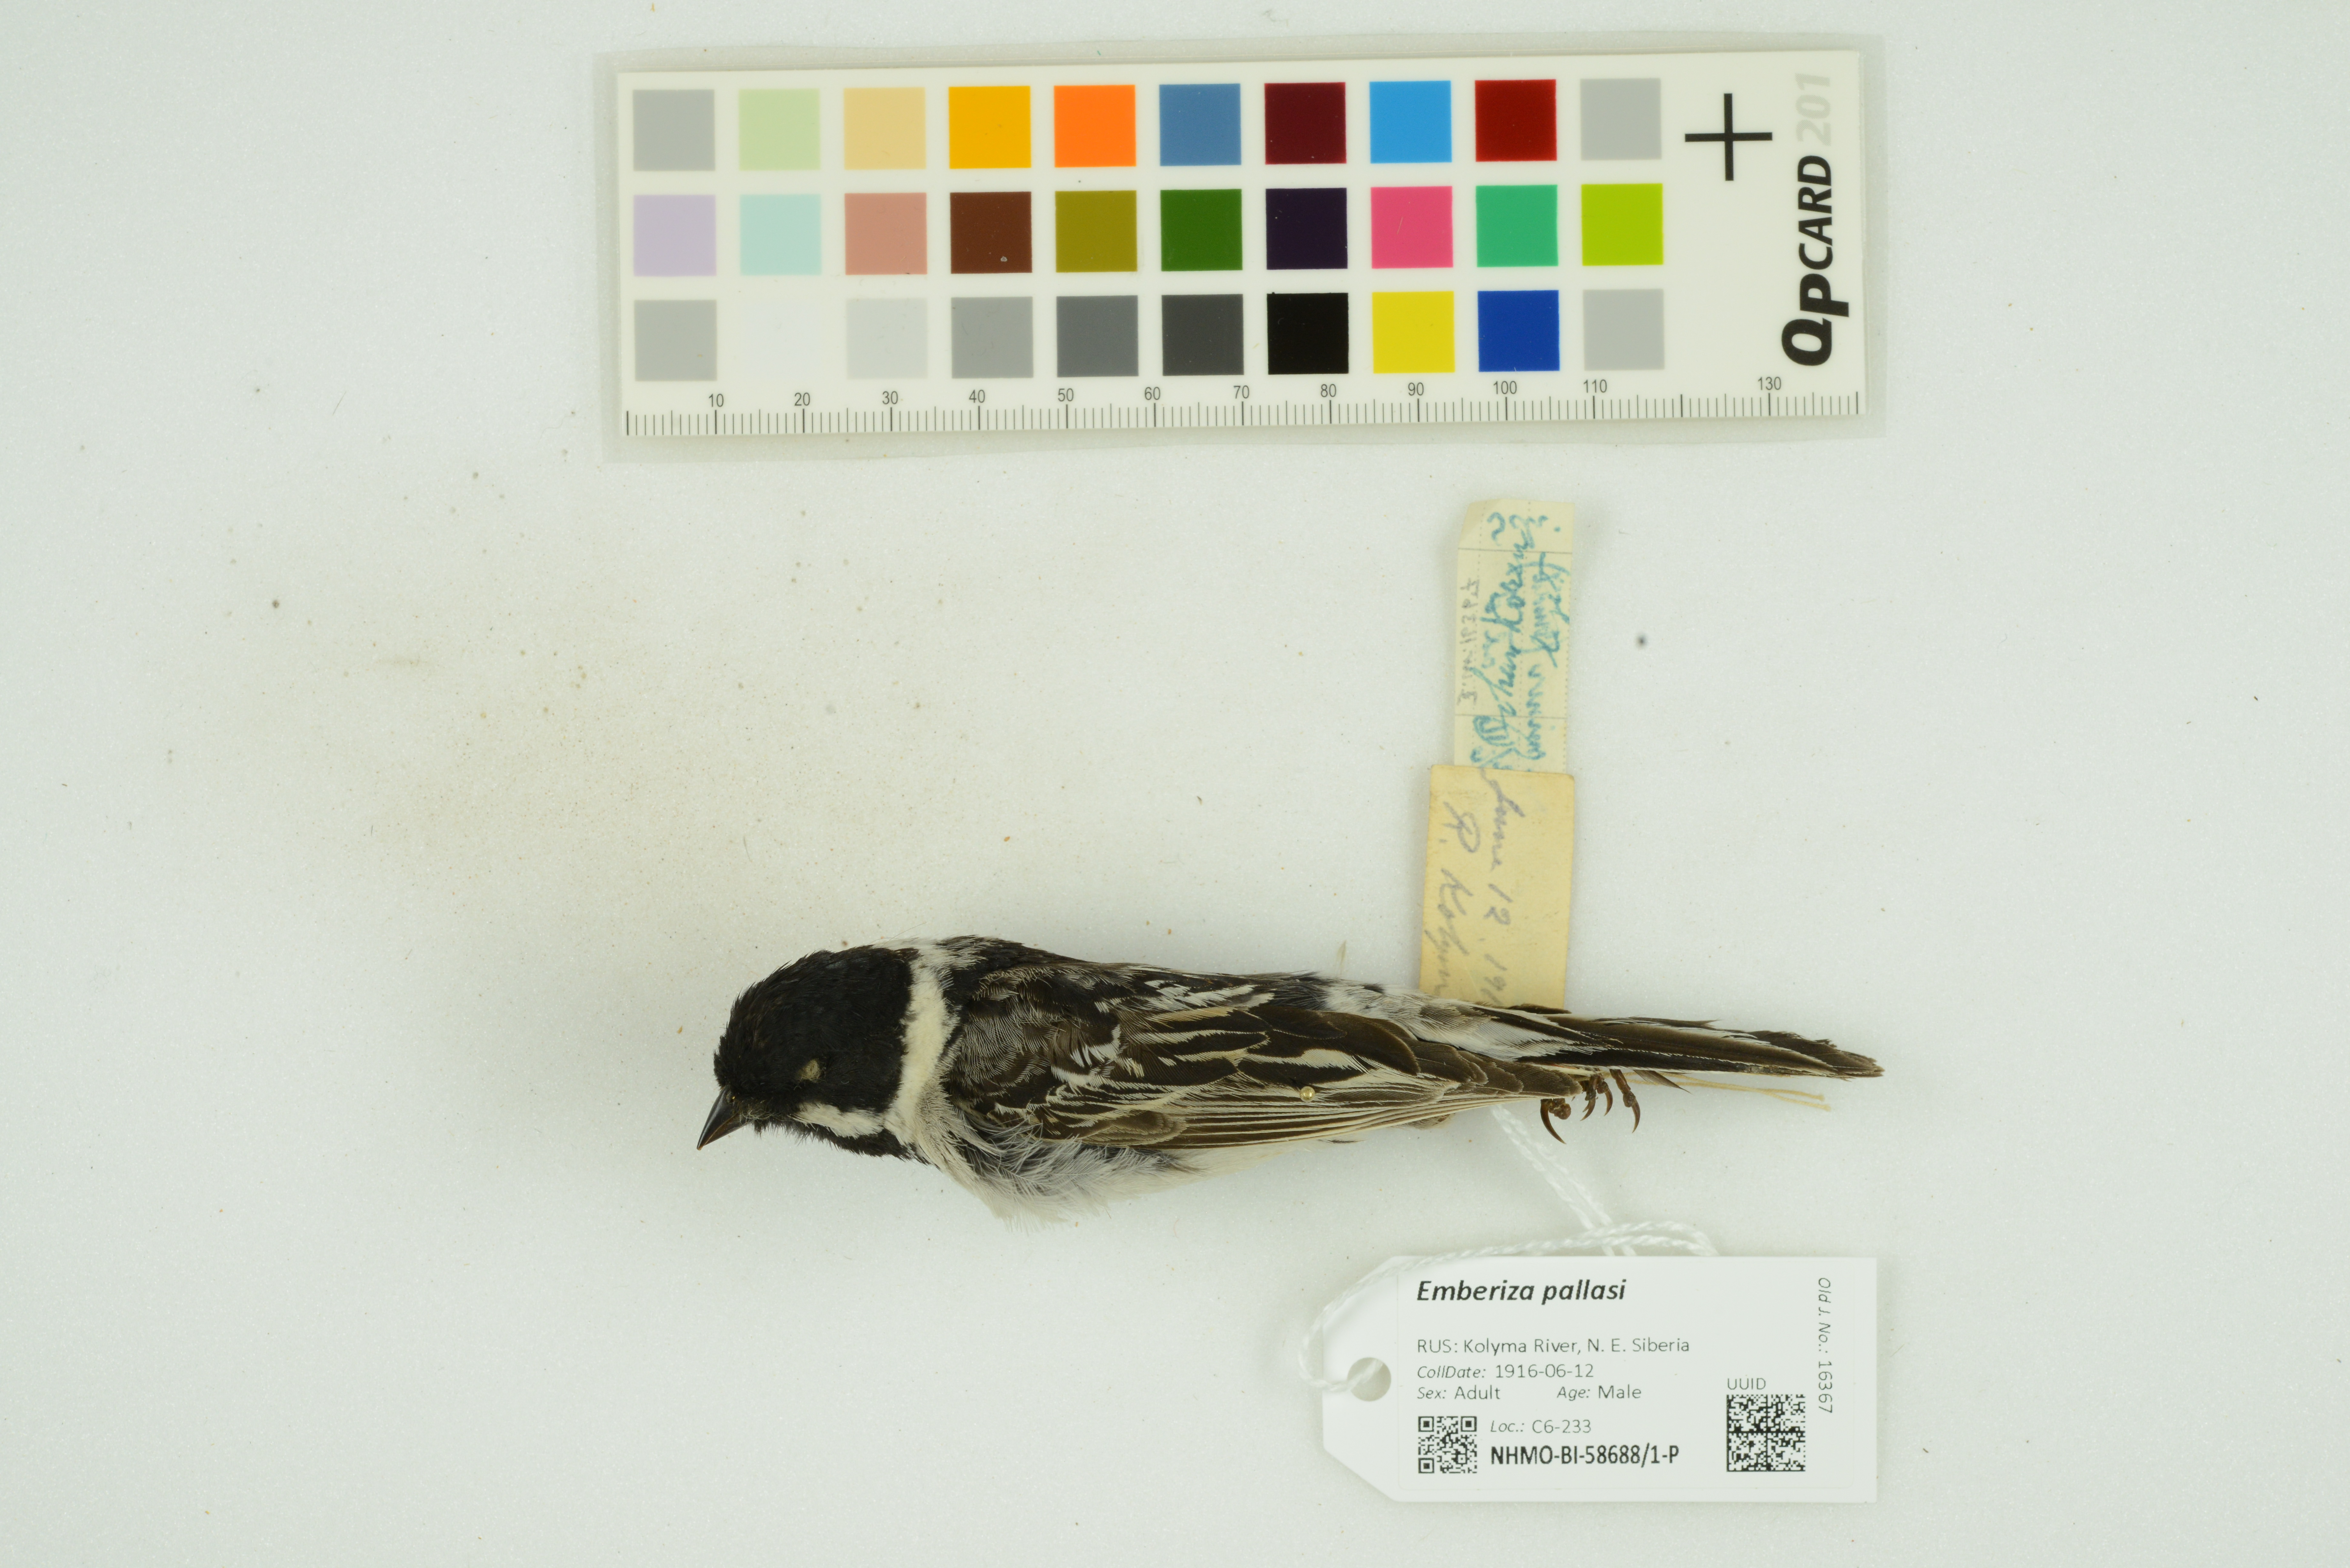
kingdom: Animalia
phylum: Chordata
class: Aves
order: Passeriformes
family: Emberizidae
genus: Emberiza
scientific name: Emberiza pallasi
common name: Pallas's reed bunting
